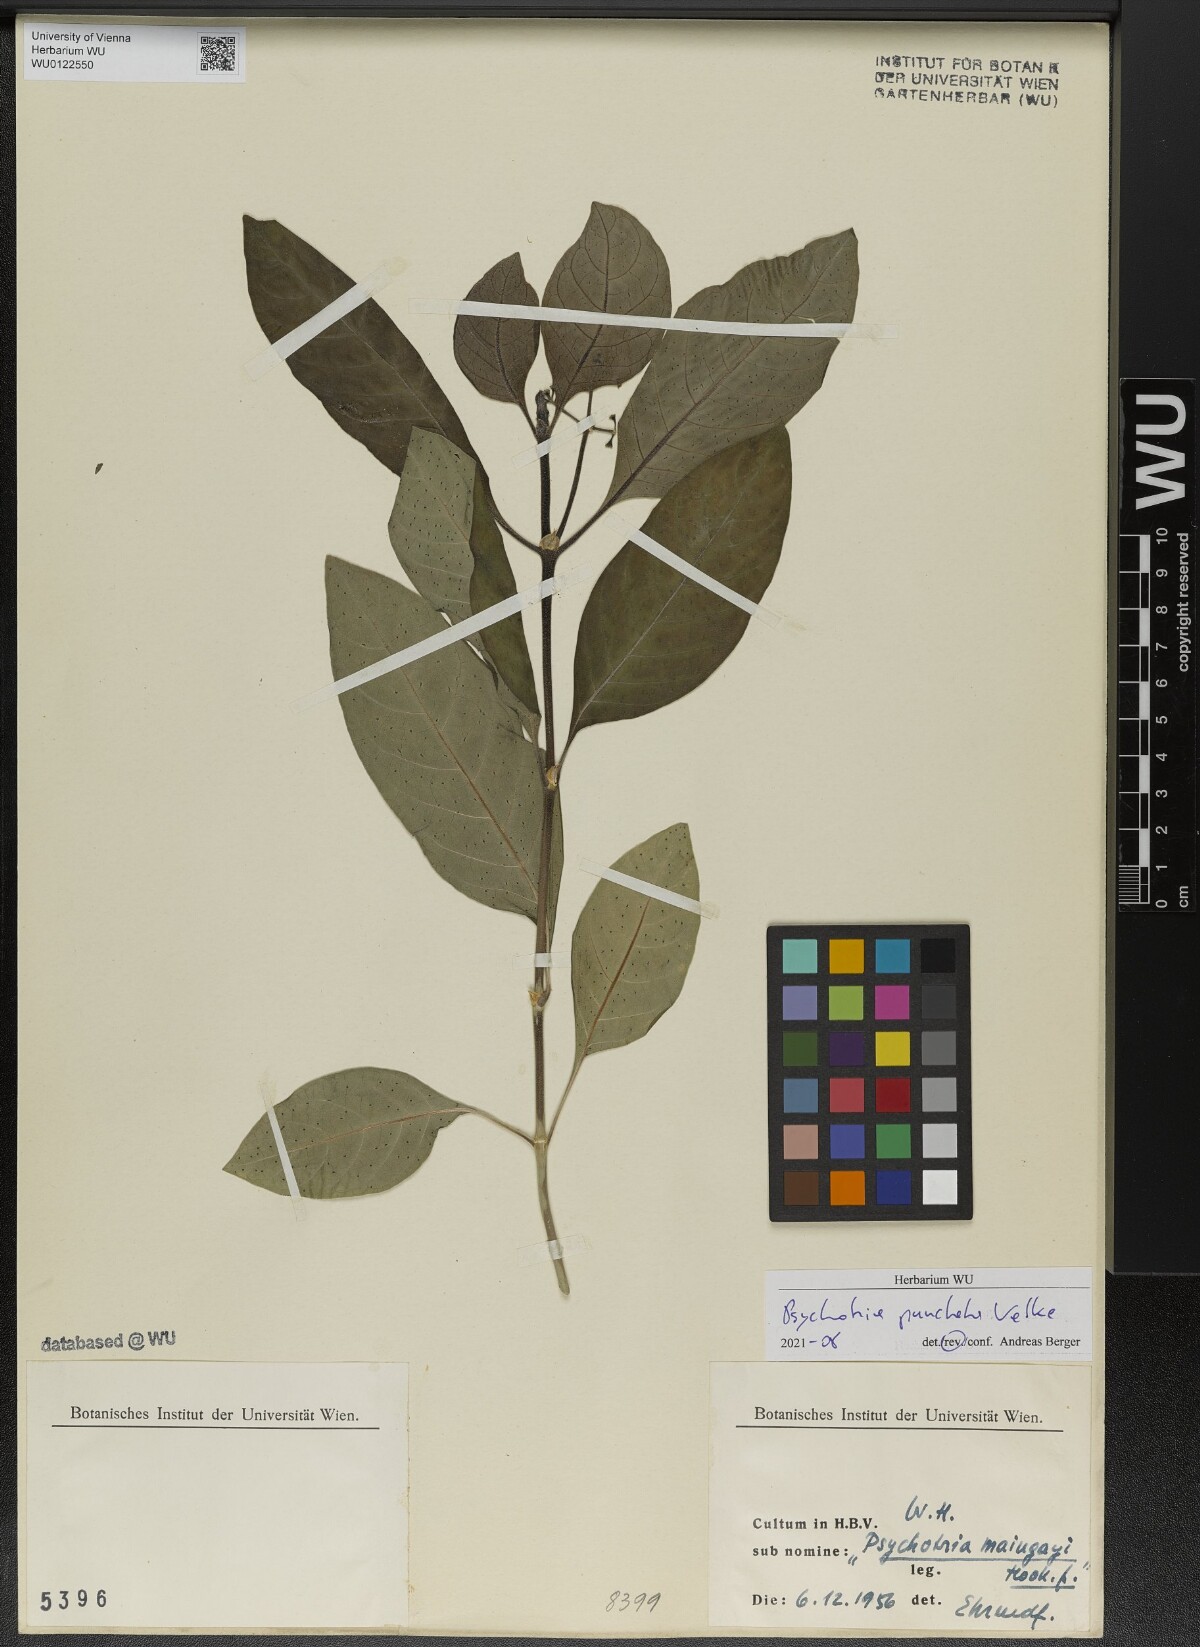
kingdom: Plantae
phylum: Tracheophyta
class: Magnoliopsida
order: Gentianales
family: Rubiaceae
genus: Psychotria
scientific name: Psychotria punctata
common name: Dotted wild coffee
